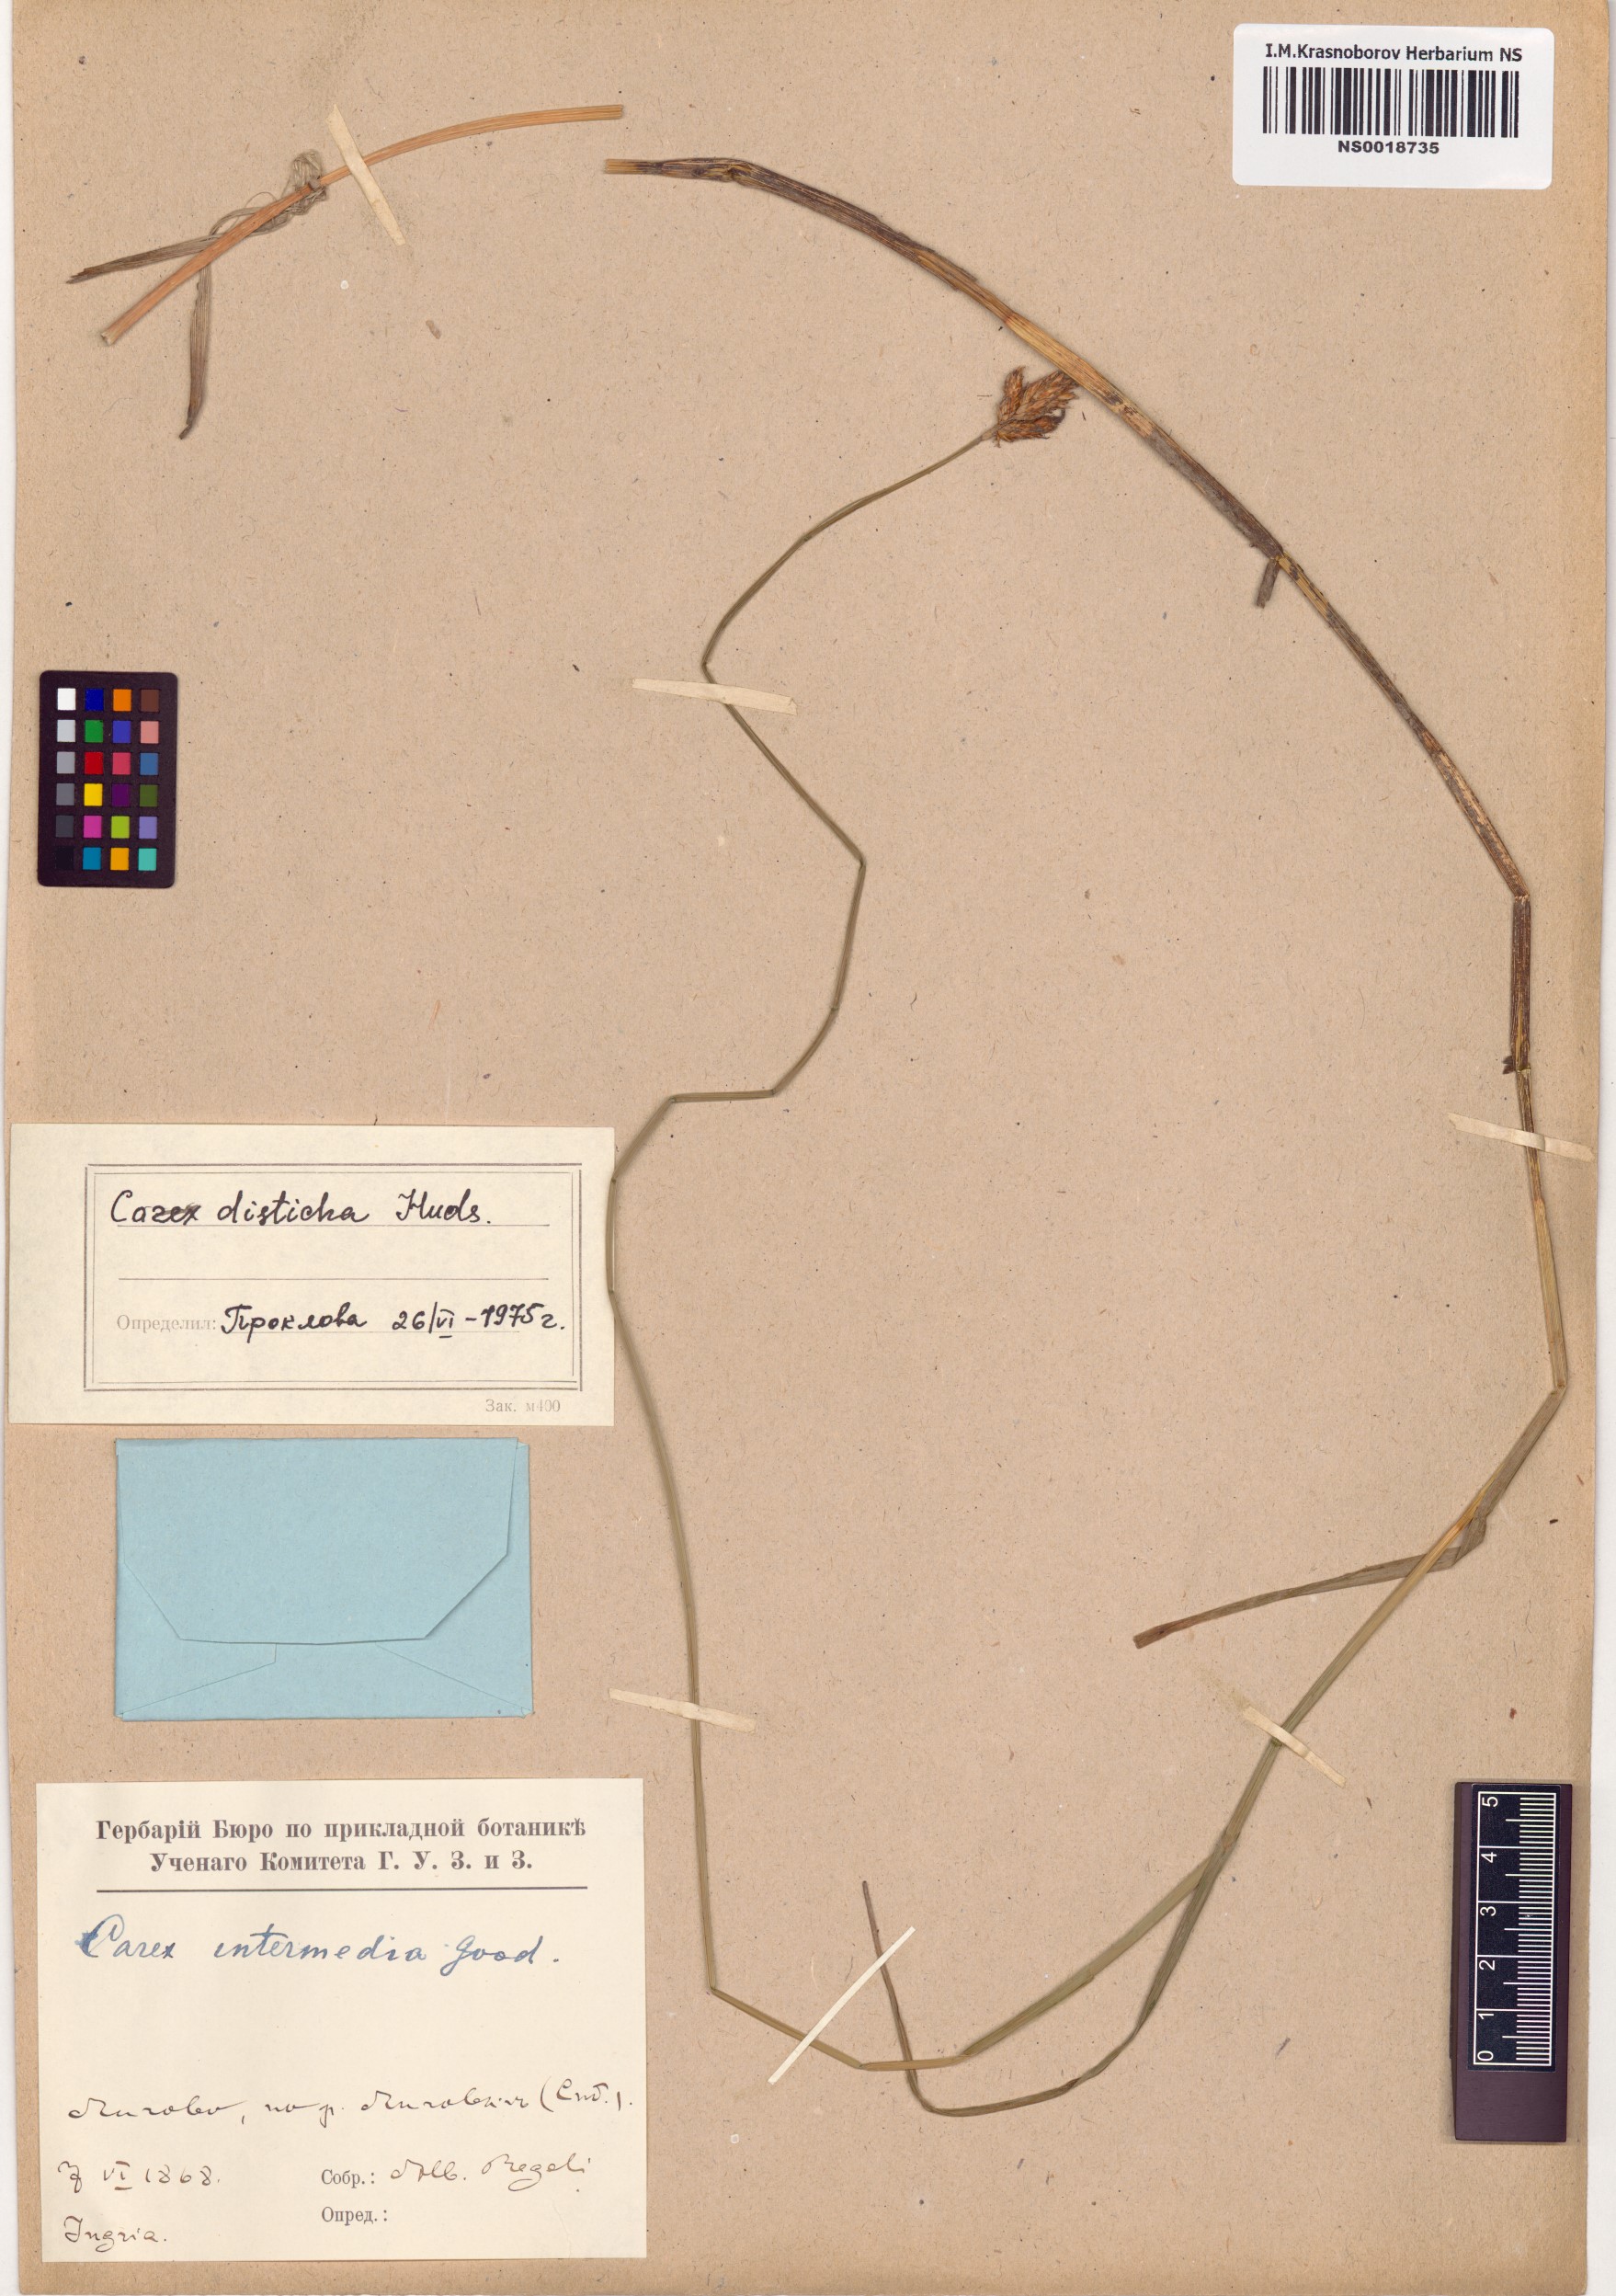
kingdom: Plantae
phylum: Tracheophyta
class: Liliopsida
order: Poales
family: Cyperaceae
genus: Carex
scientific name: Carex disticha
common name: Brown sedge
